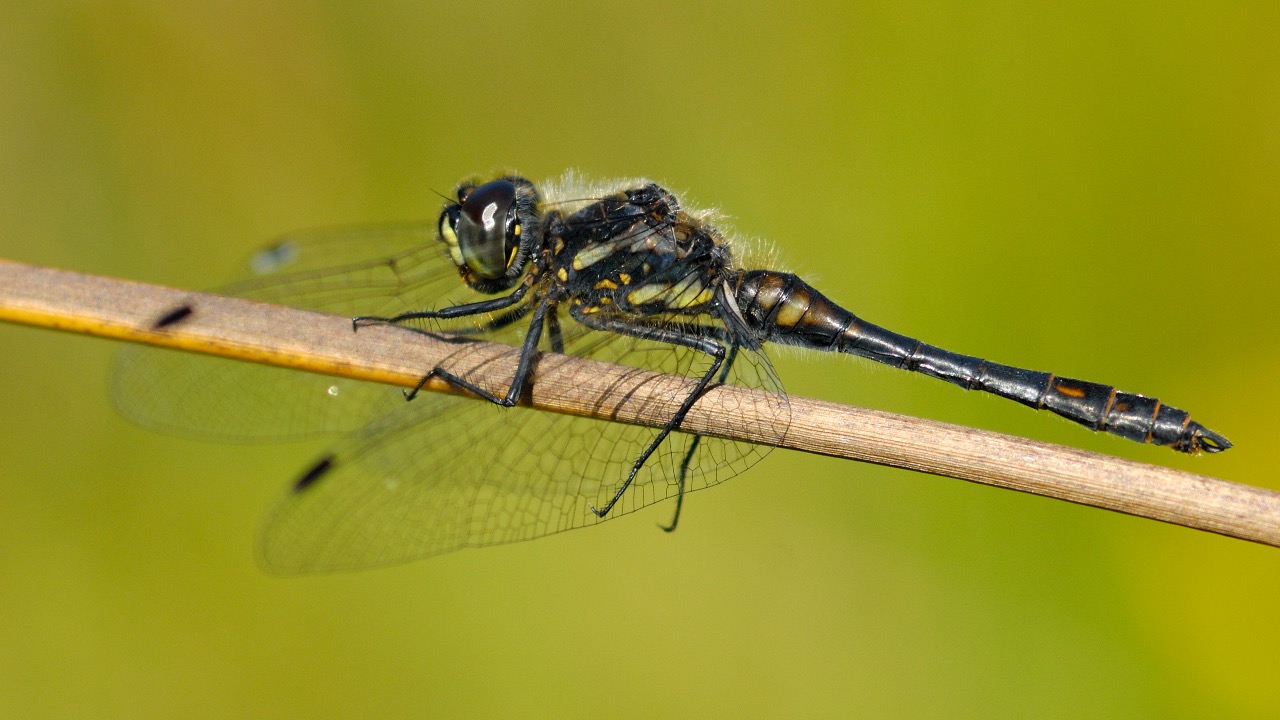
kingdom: Animalia
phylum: Arthropoda
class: Insecta
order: Odonata
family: Libellulidae
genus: Sympetrum
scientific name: Sympetrum danae
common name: Sort hedelibel
